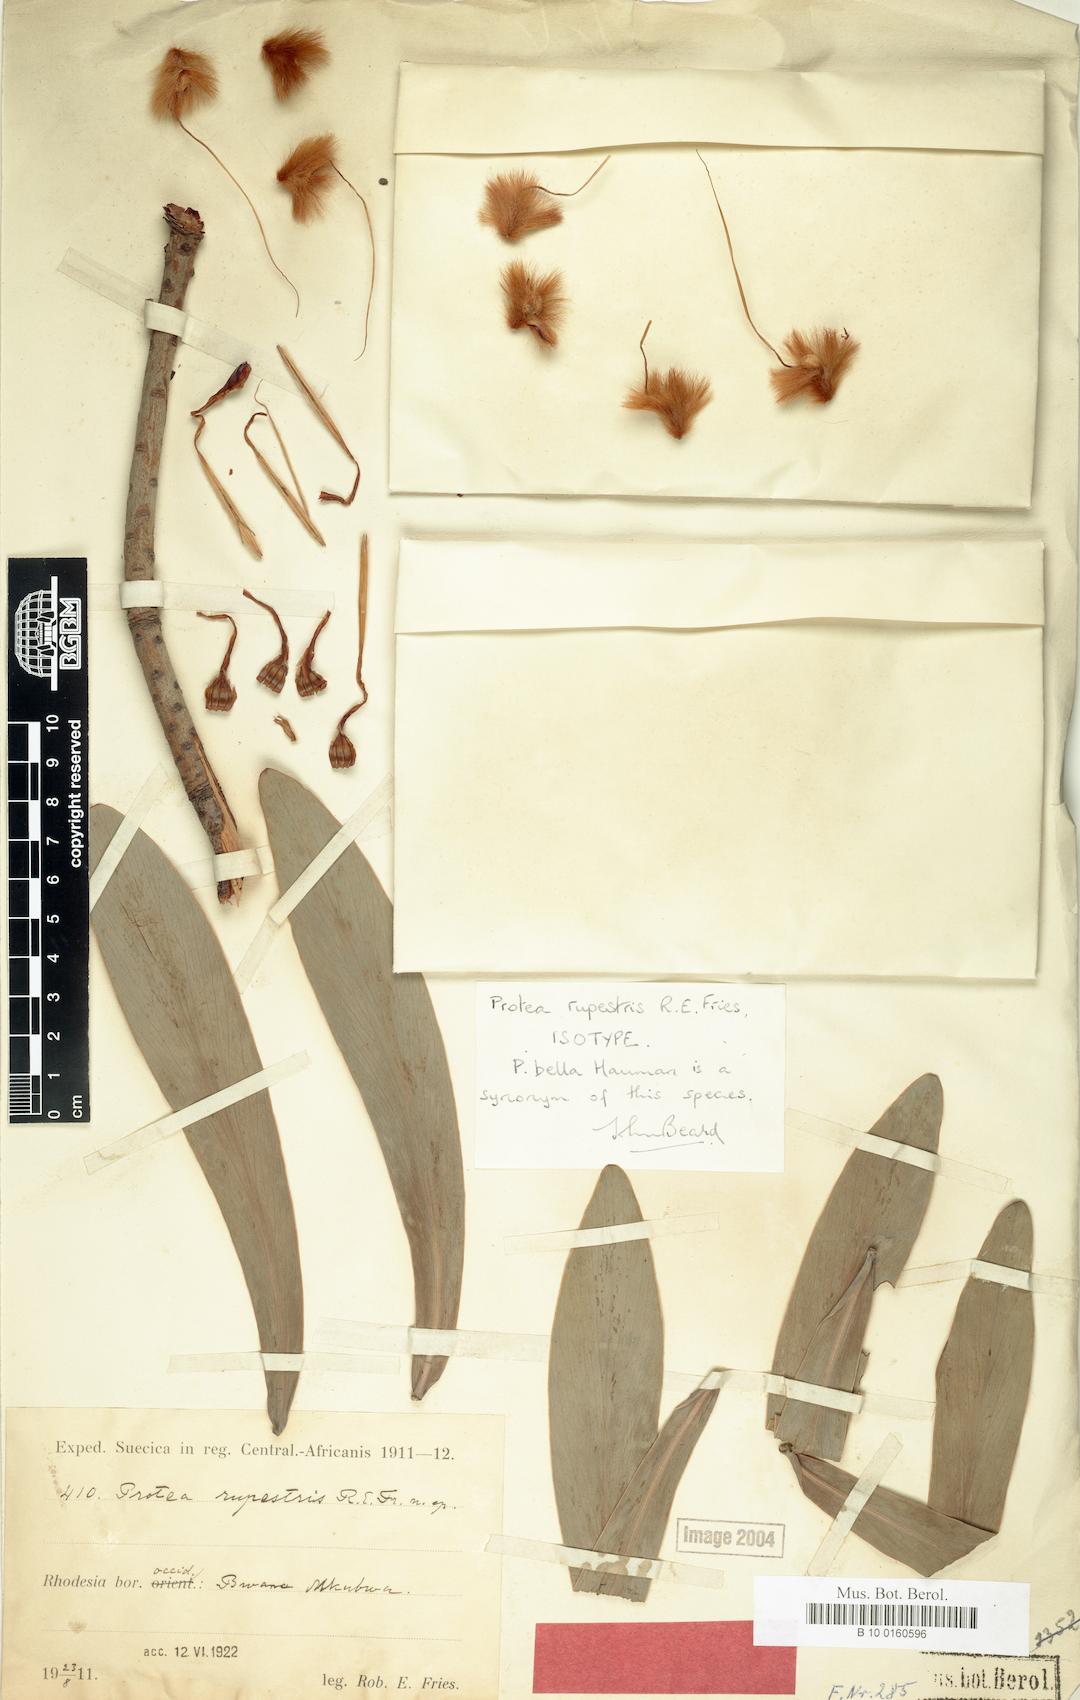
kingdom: Plantae
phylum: Tracheophyta
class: Magnoliopsida
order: Proteales
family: Proteaceae
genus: Protea
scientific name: Protea rupestris
